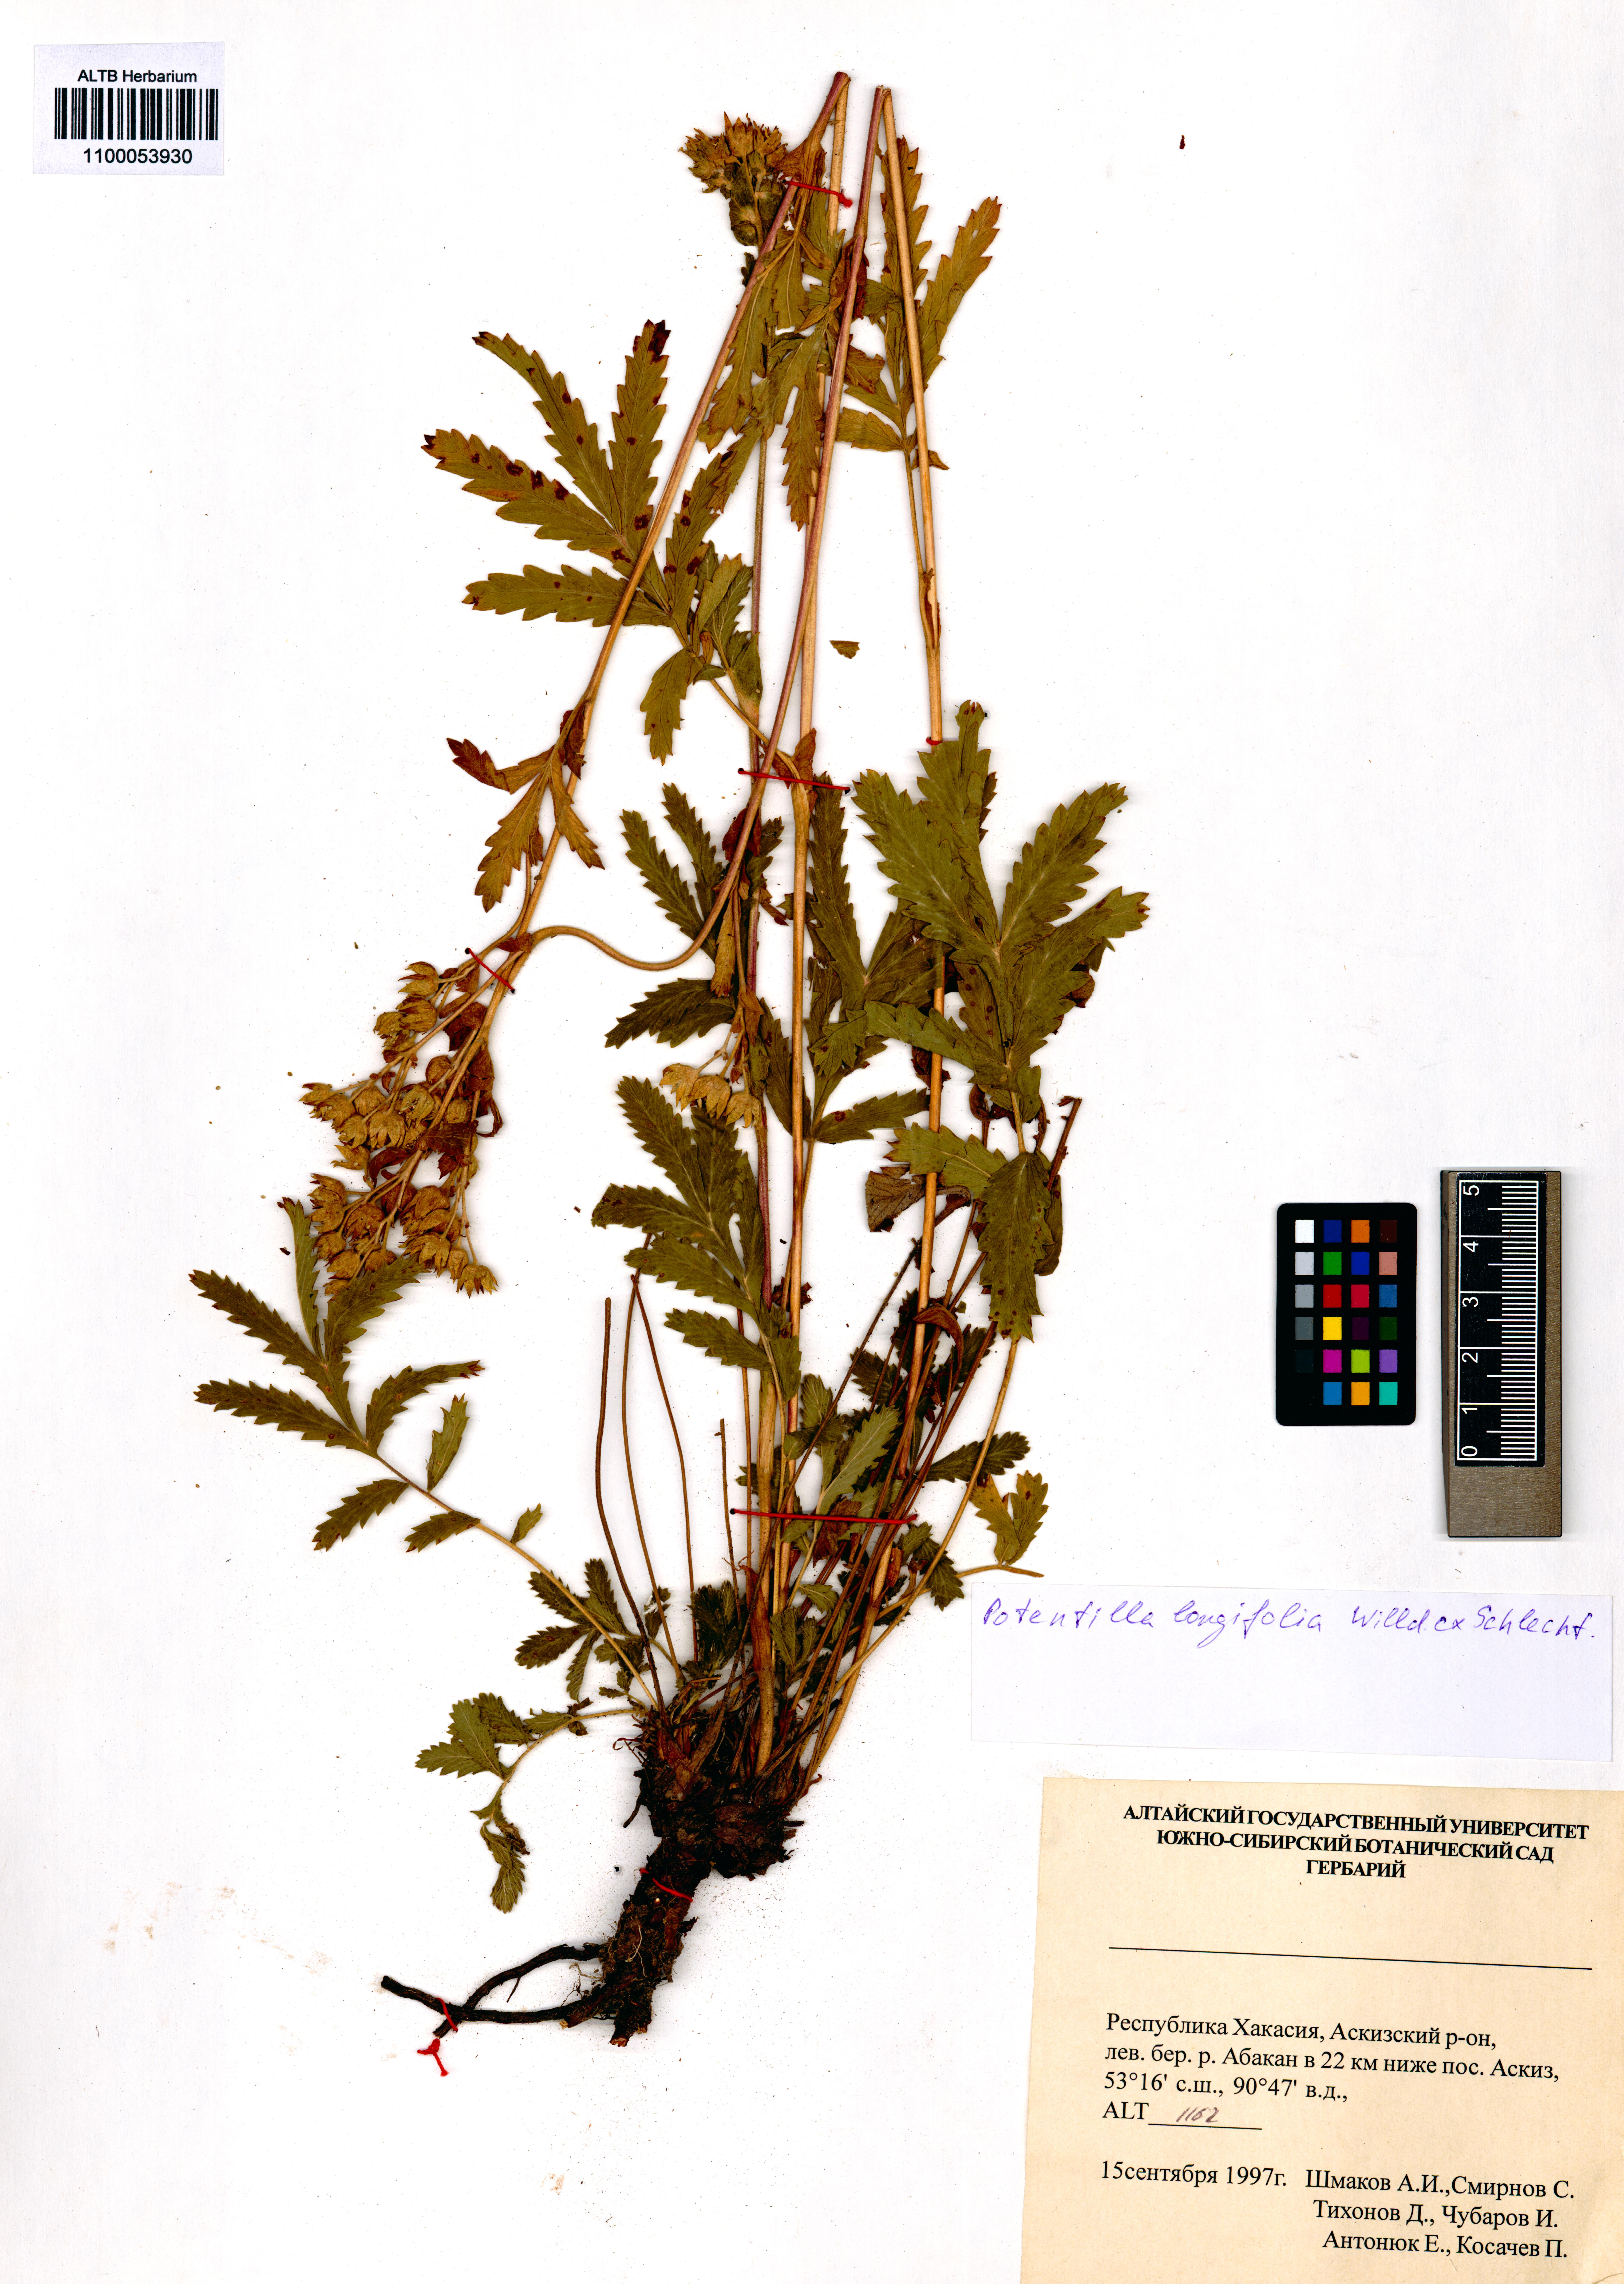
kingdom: Plantae
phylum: Tracheophyta
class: Magnoliopsida
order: Rosales
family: Rosaceae
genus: Potentilla
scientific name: Potentilla longifolia
